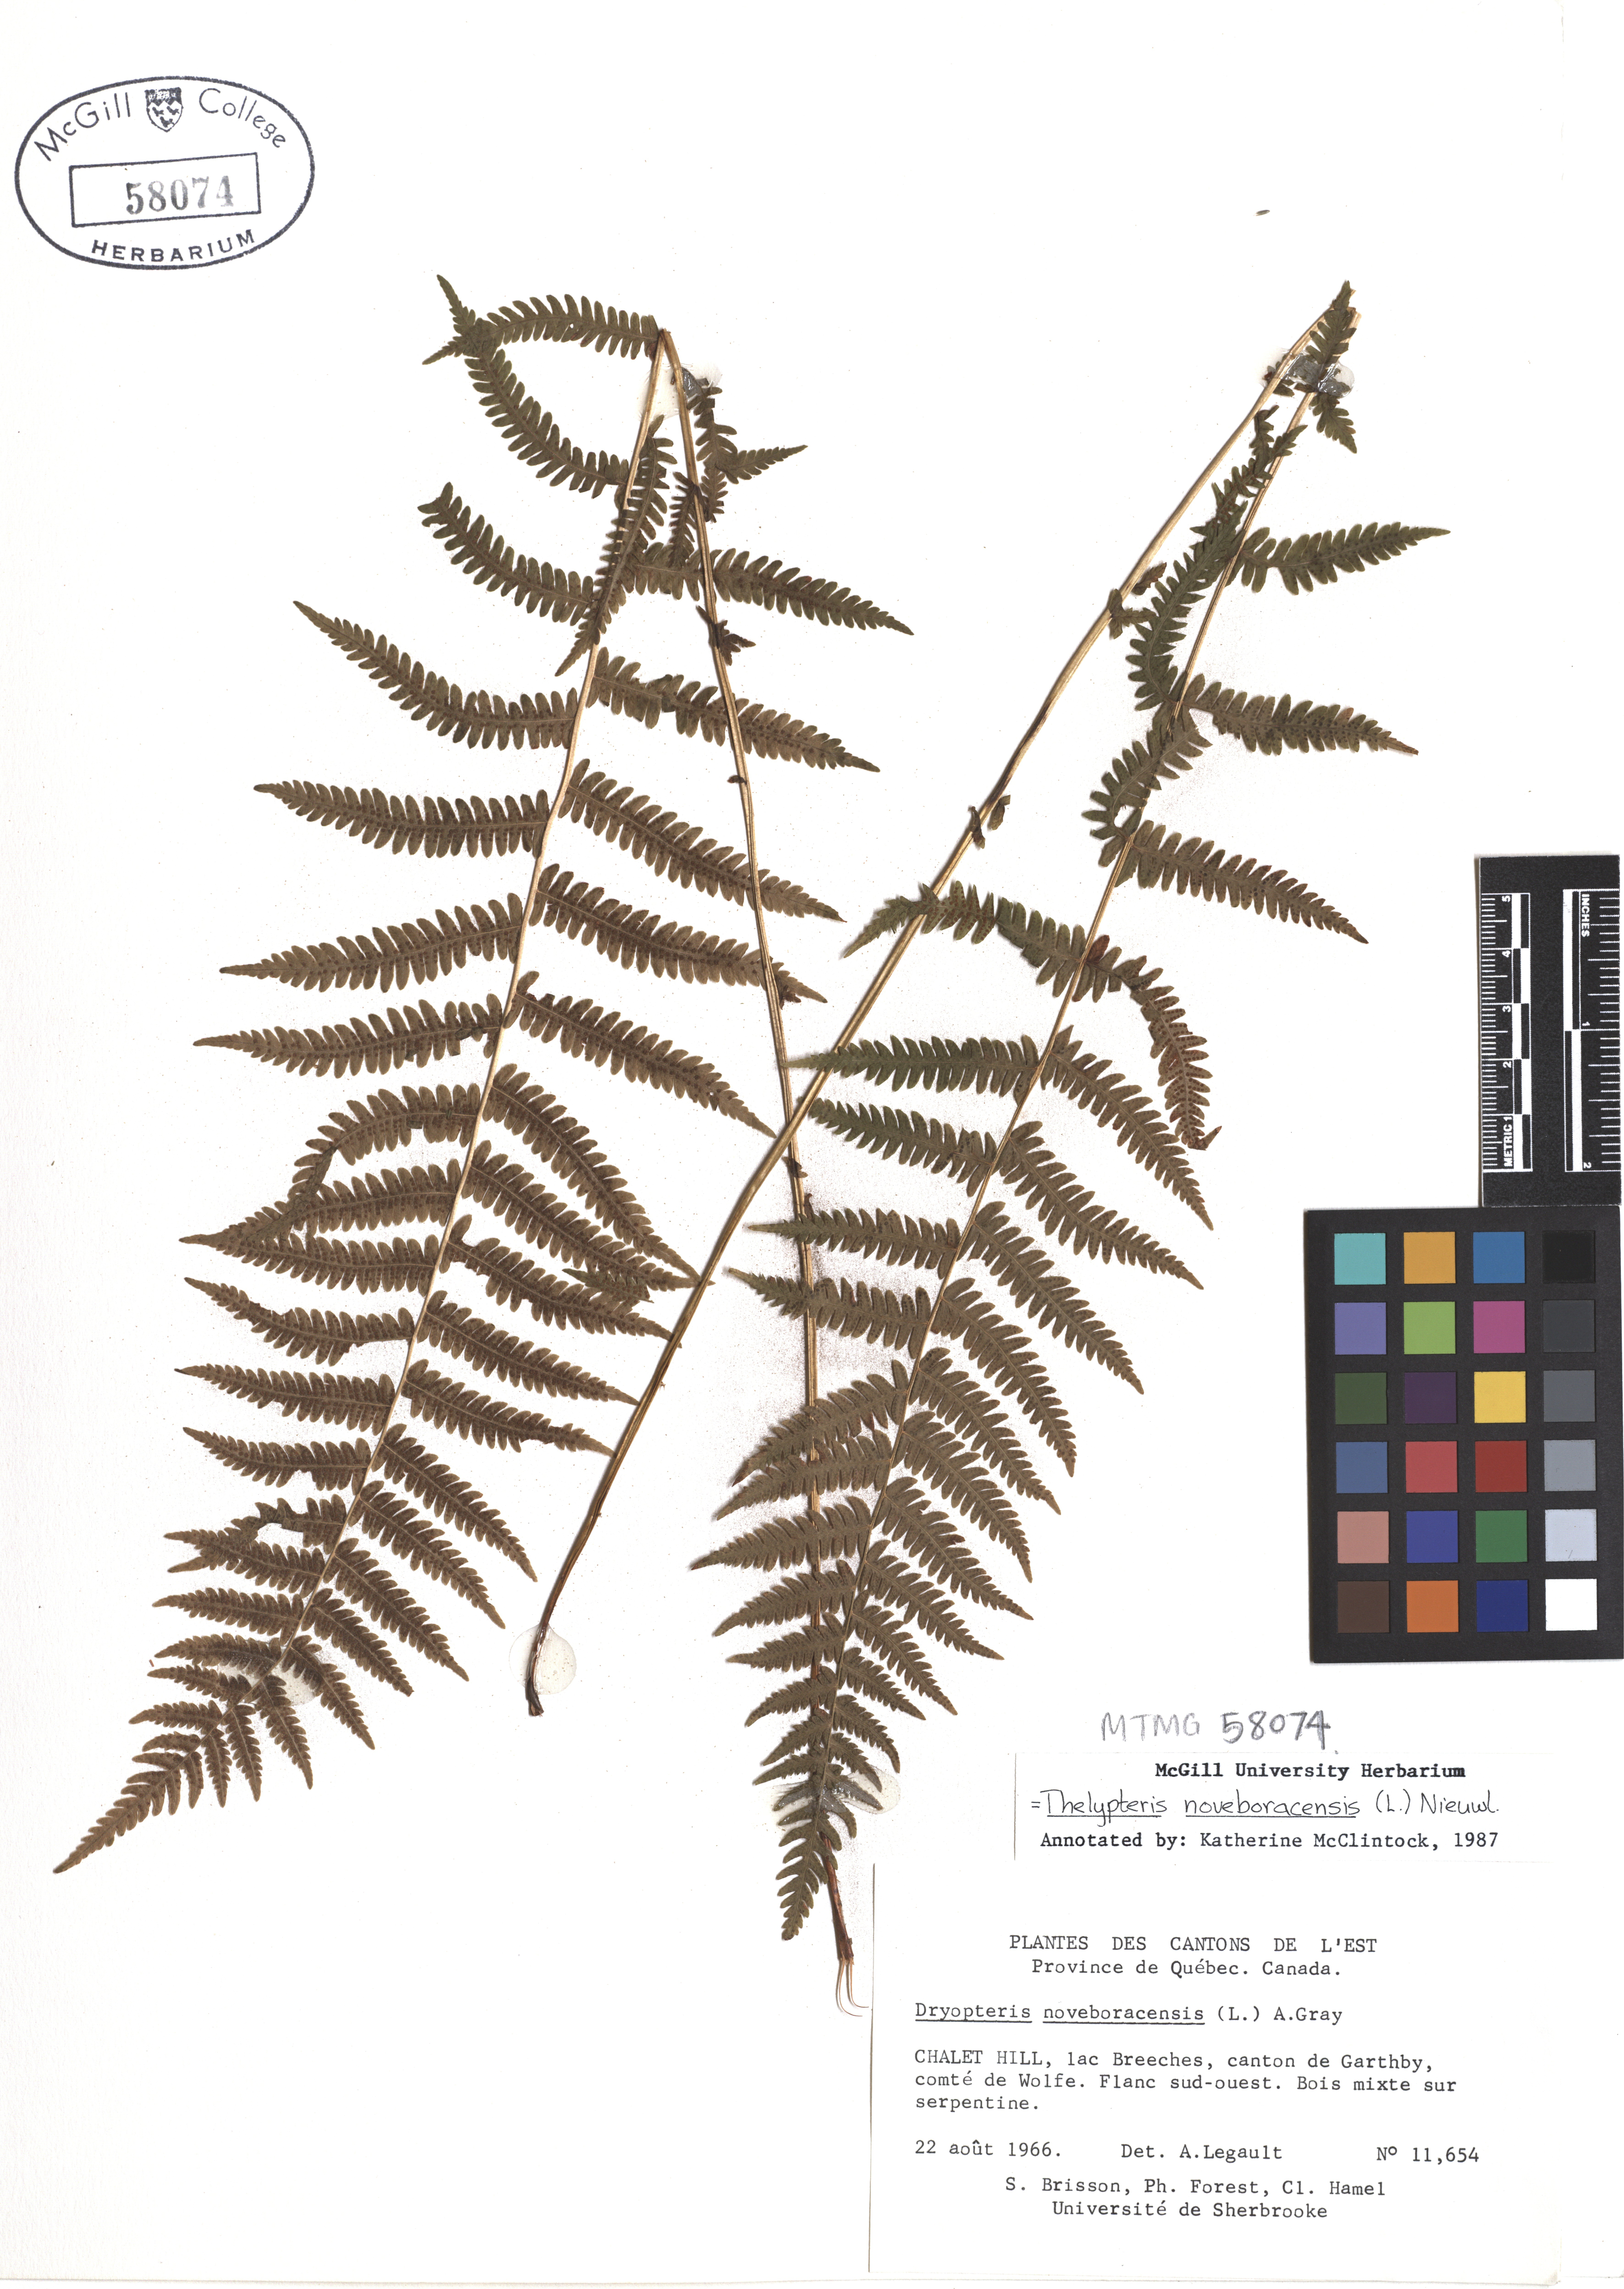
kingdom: Plantae
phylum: Tracheophyta
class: Polypodiopsida
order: Polypodiales
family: Thelypteridaceae
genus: Amauropelta
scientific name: Amauropelta noveboracensis
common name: New york fern
